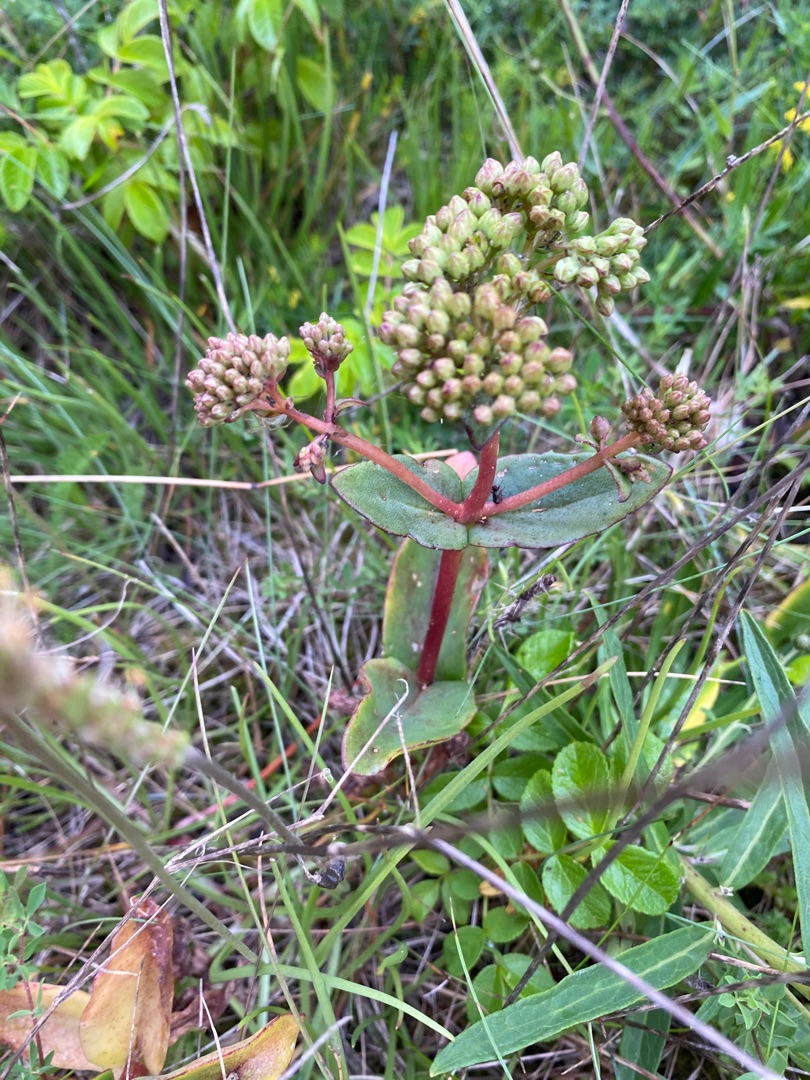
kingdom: Plantae
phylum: Tracheophyta
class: Magnoliopsida
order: Saxifragales
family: Crassulaceae
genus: Hylotelephium
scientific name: Hylotelephium maximum
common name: Almindelig sankthansurt
